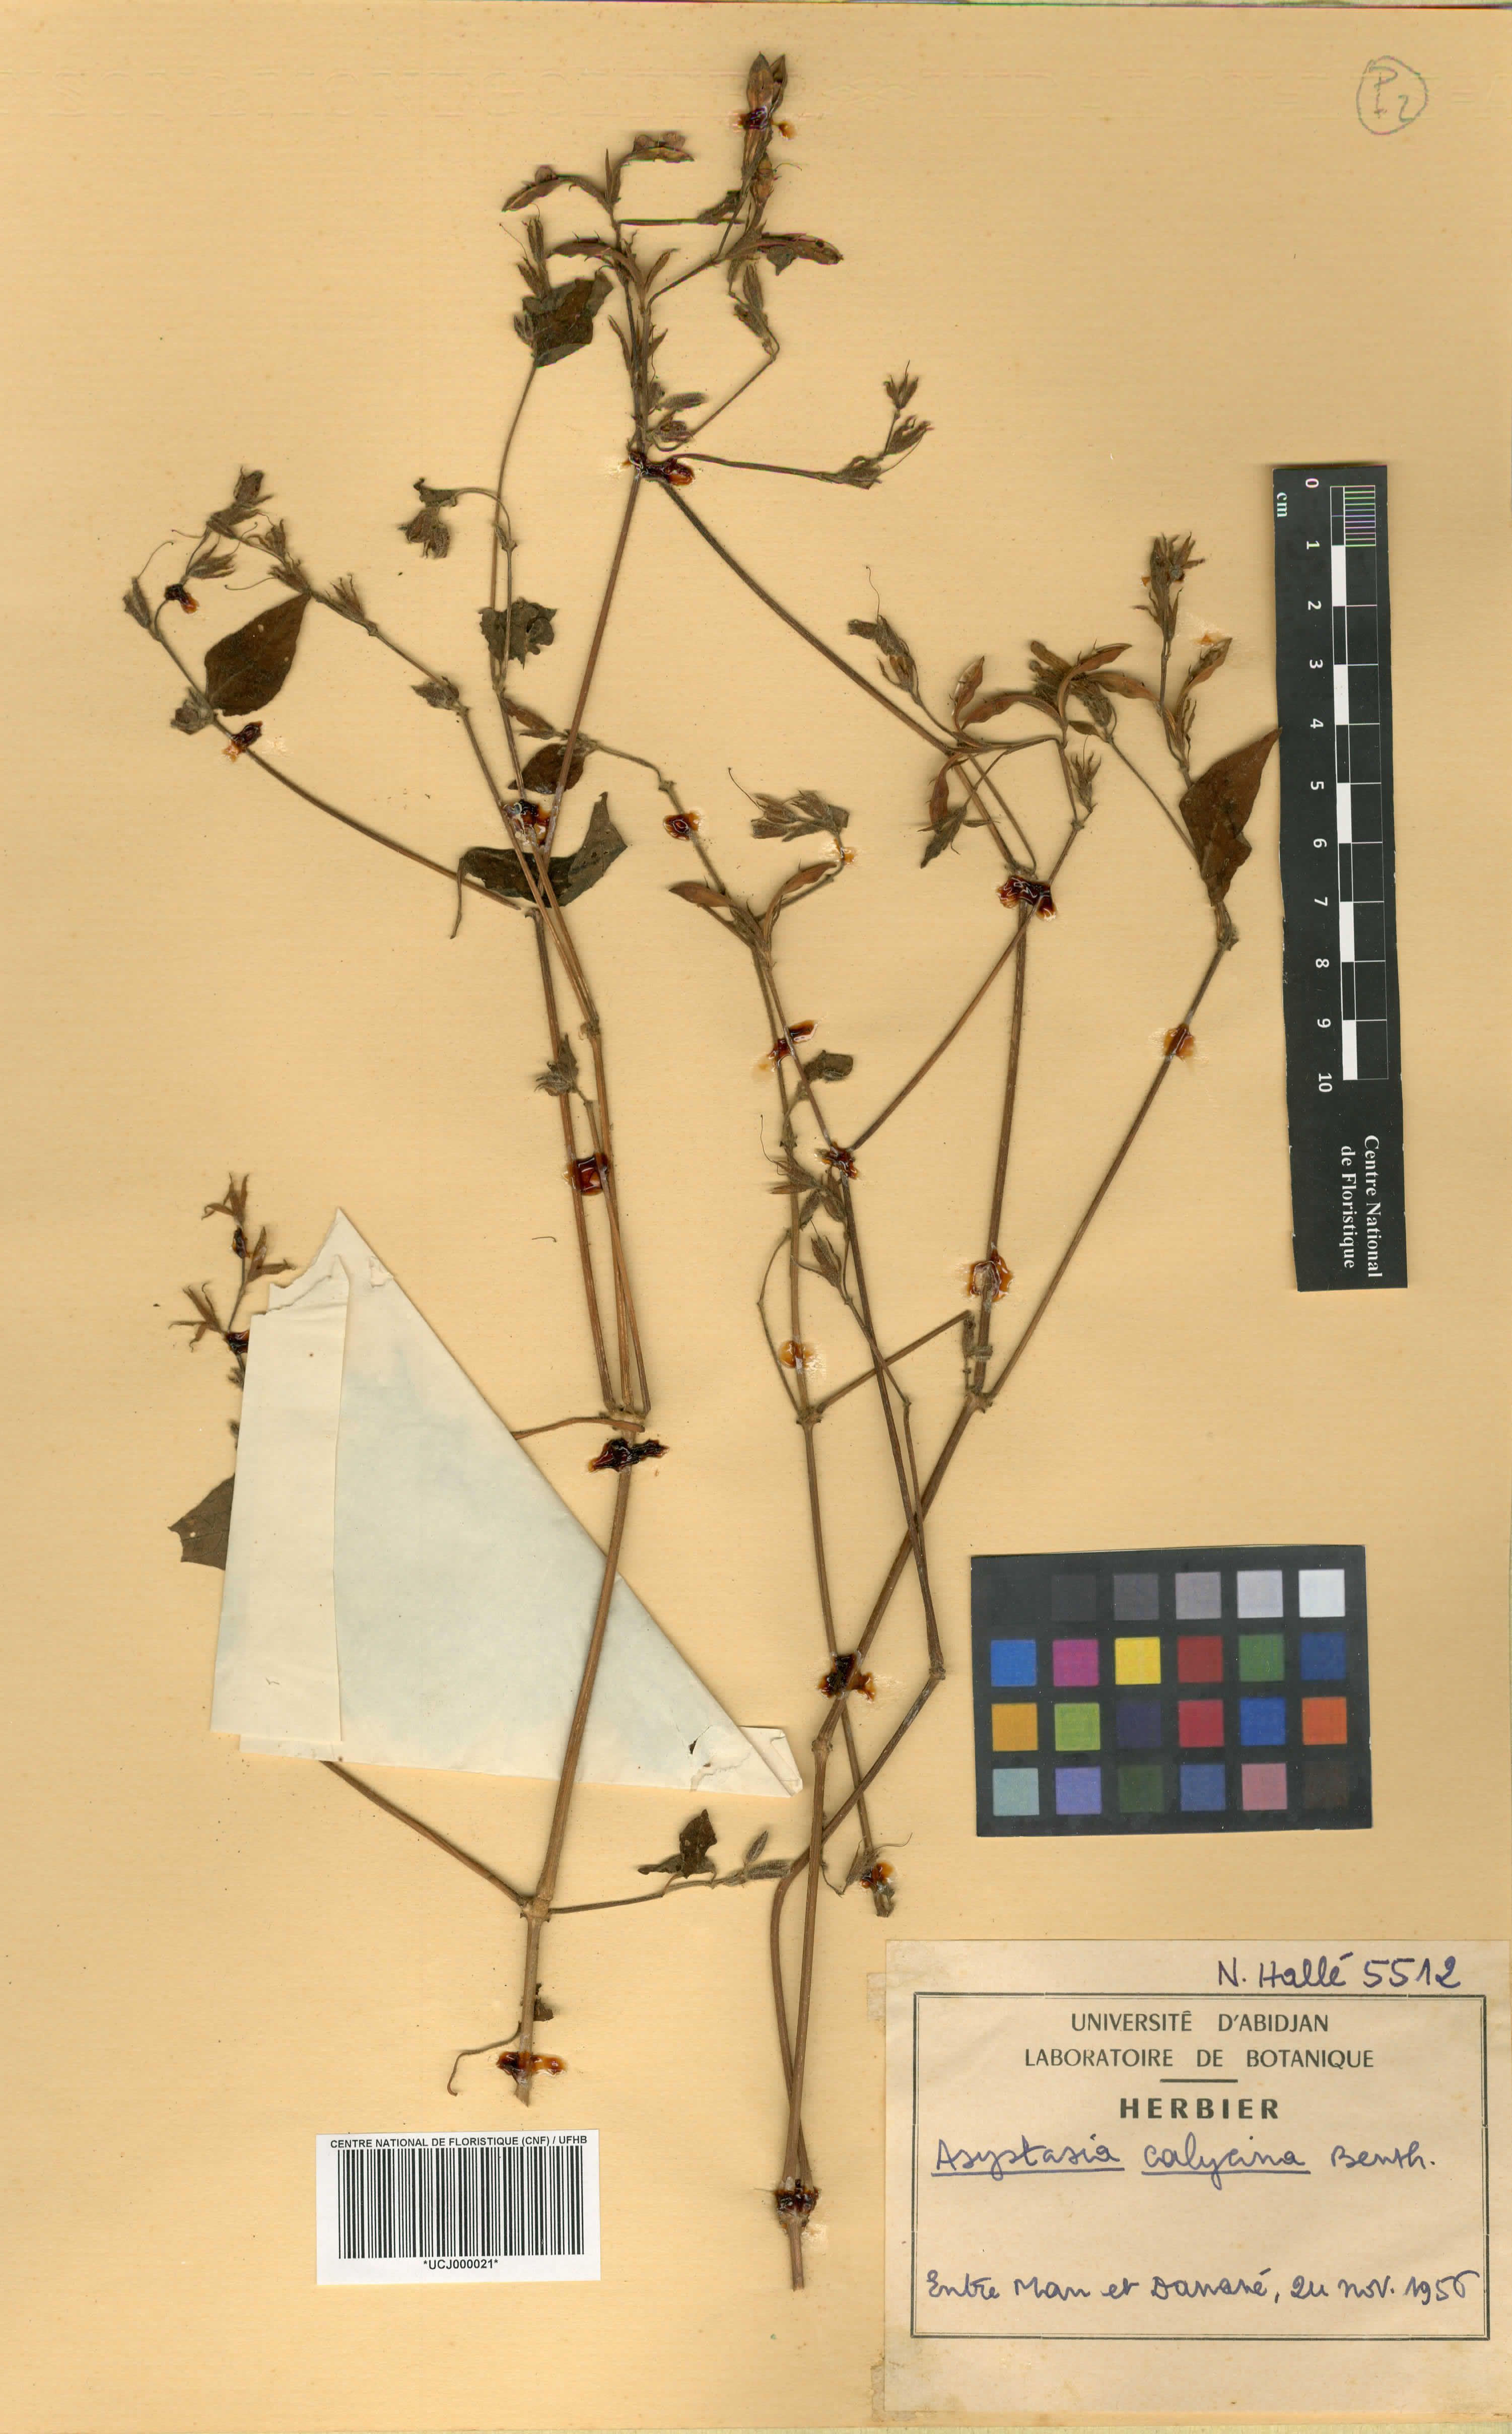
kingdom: Plantae
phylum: Tracheophyta
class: Magnoliopsida
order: Lamiales
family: Acanthaceae
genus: Asystasia
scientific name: Asystasia buettneri
